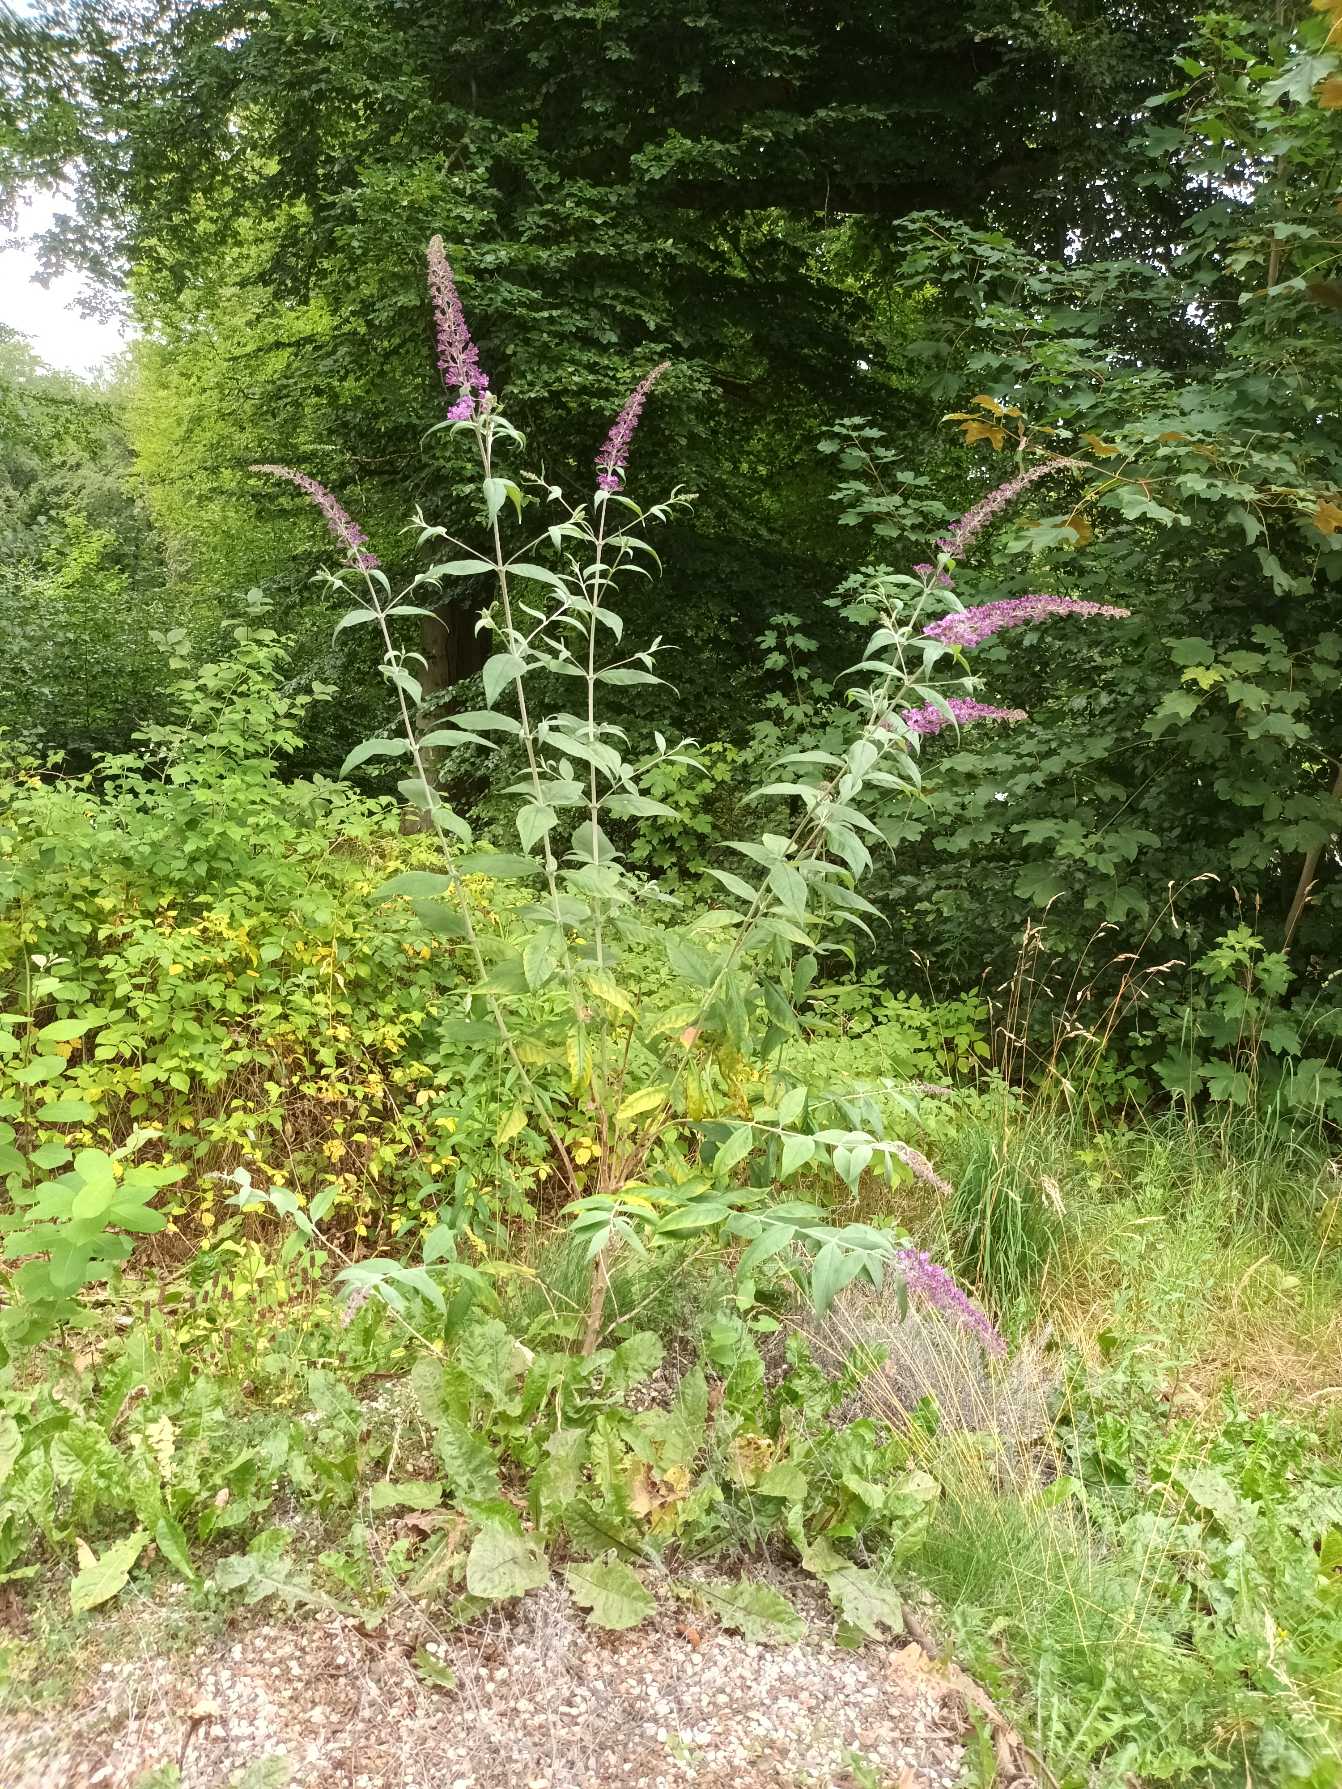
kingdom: Plantae
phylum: Tracheophyta
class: Magnoliopsida
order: Lamiales
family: Scrophulariaceae
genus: Buddleja
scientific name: Buddleja davidii
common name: Sommerfuglebusk
